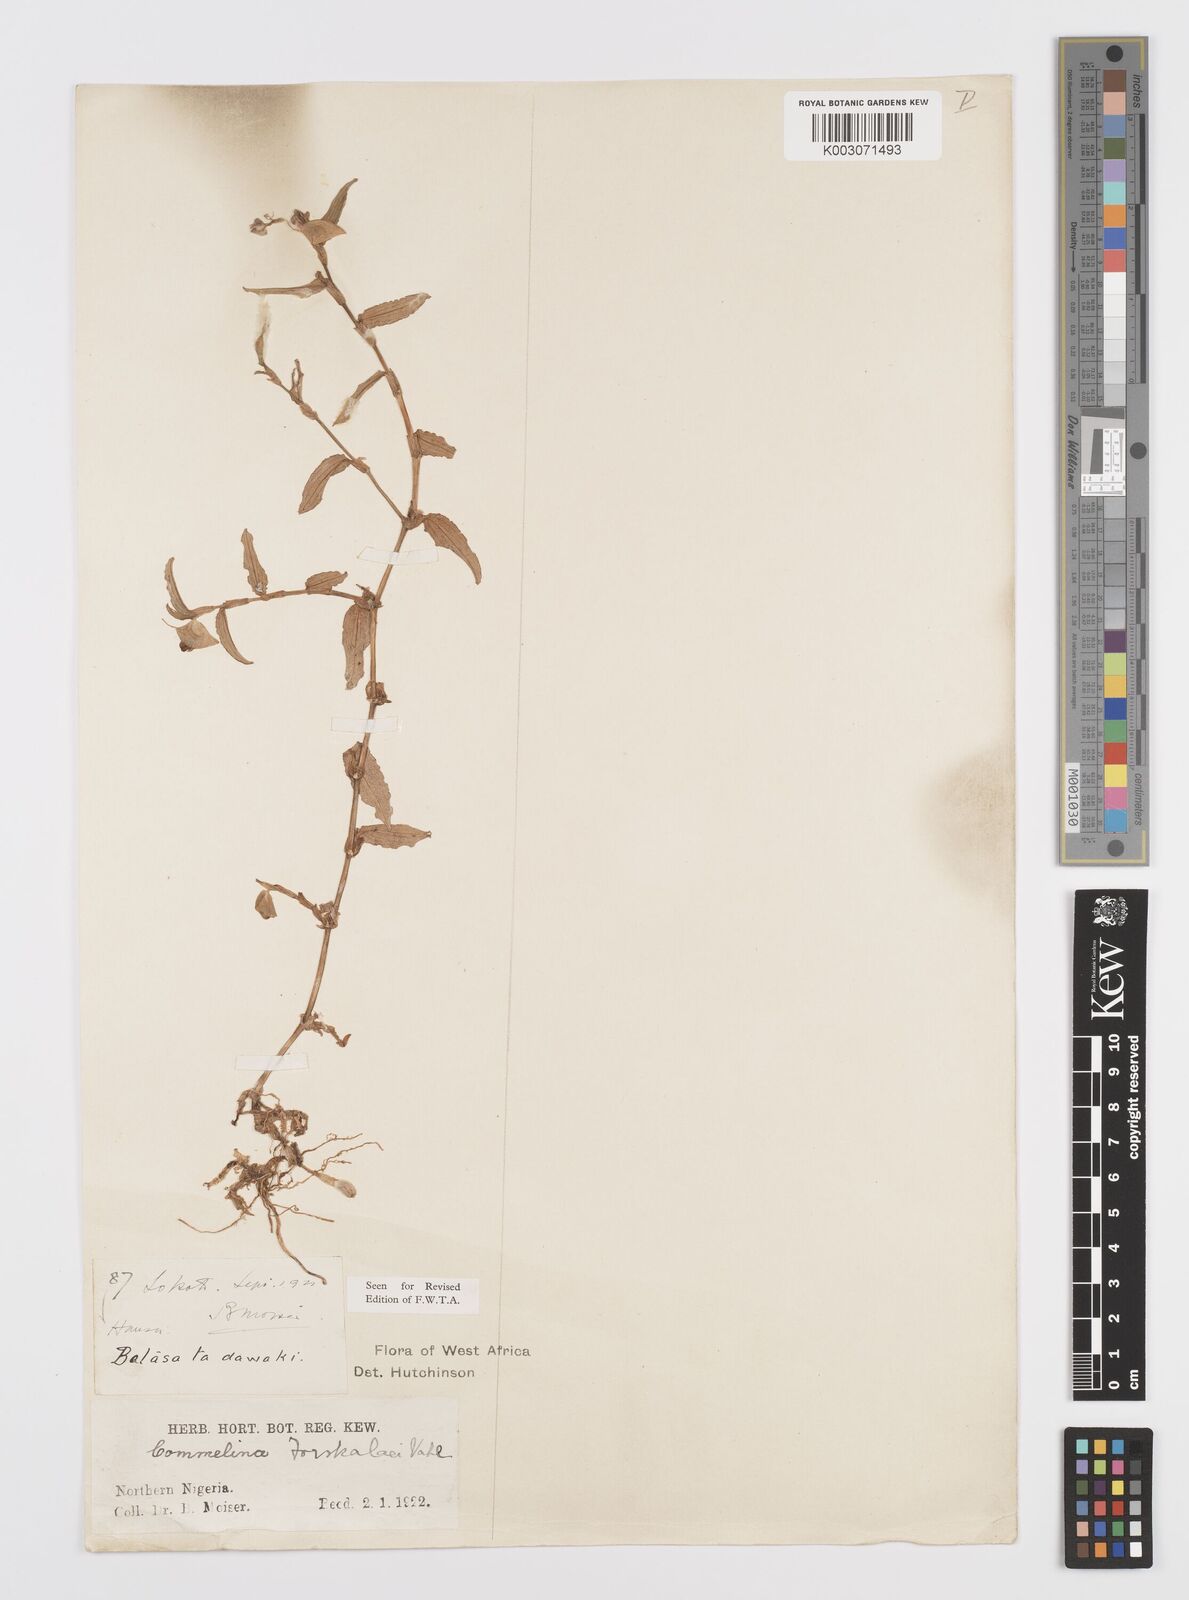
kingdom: Plantae
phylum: Tracheophyta
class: Liliopsida
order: Commelinales
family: Commelinaceae
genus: Commelina
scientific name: Commelina forskaolii
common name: Rat's ear
